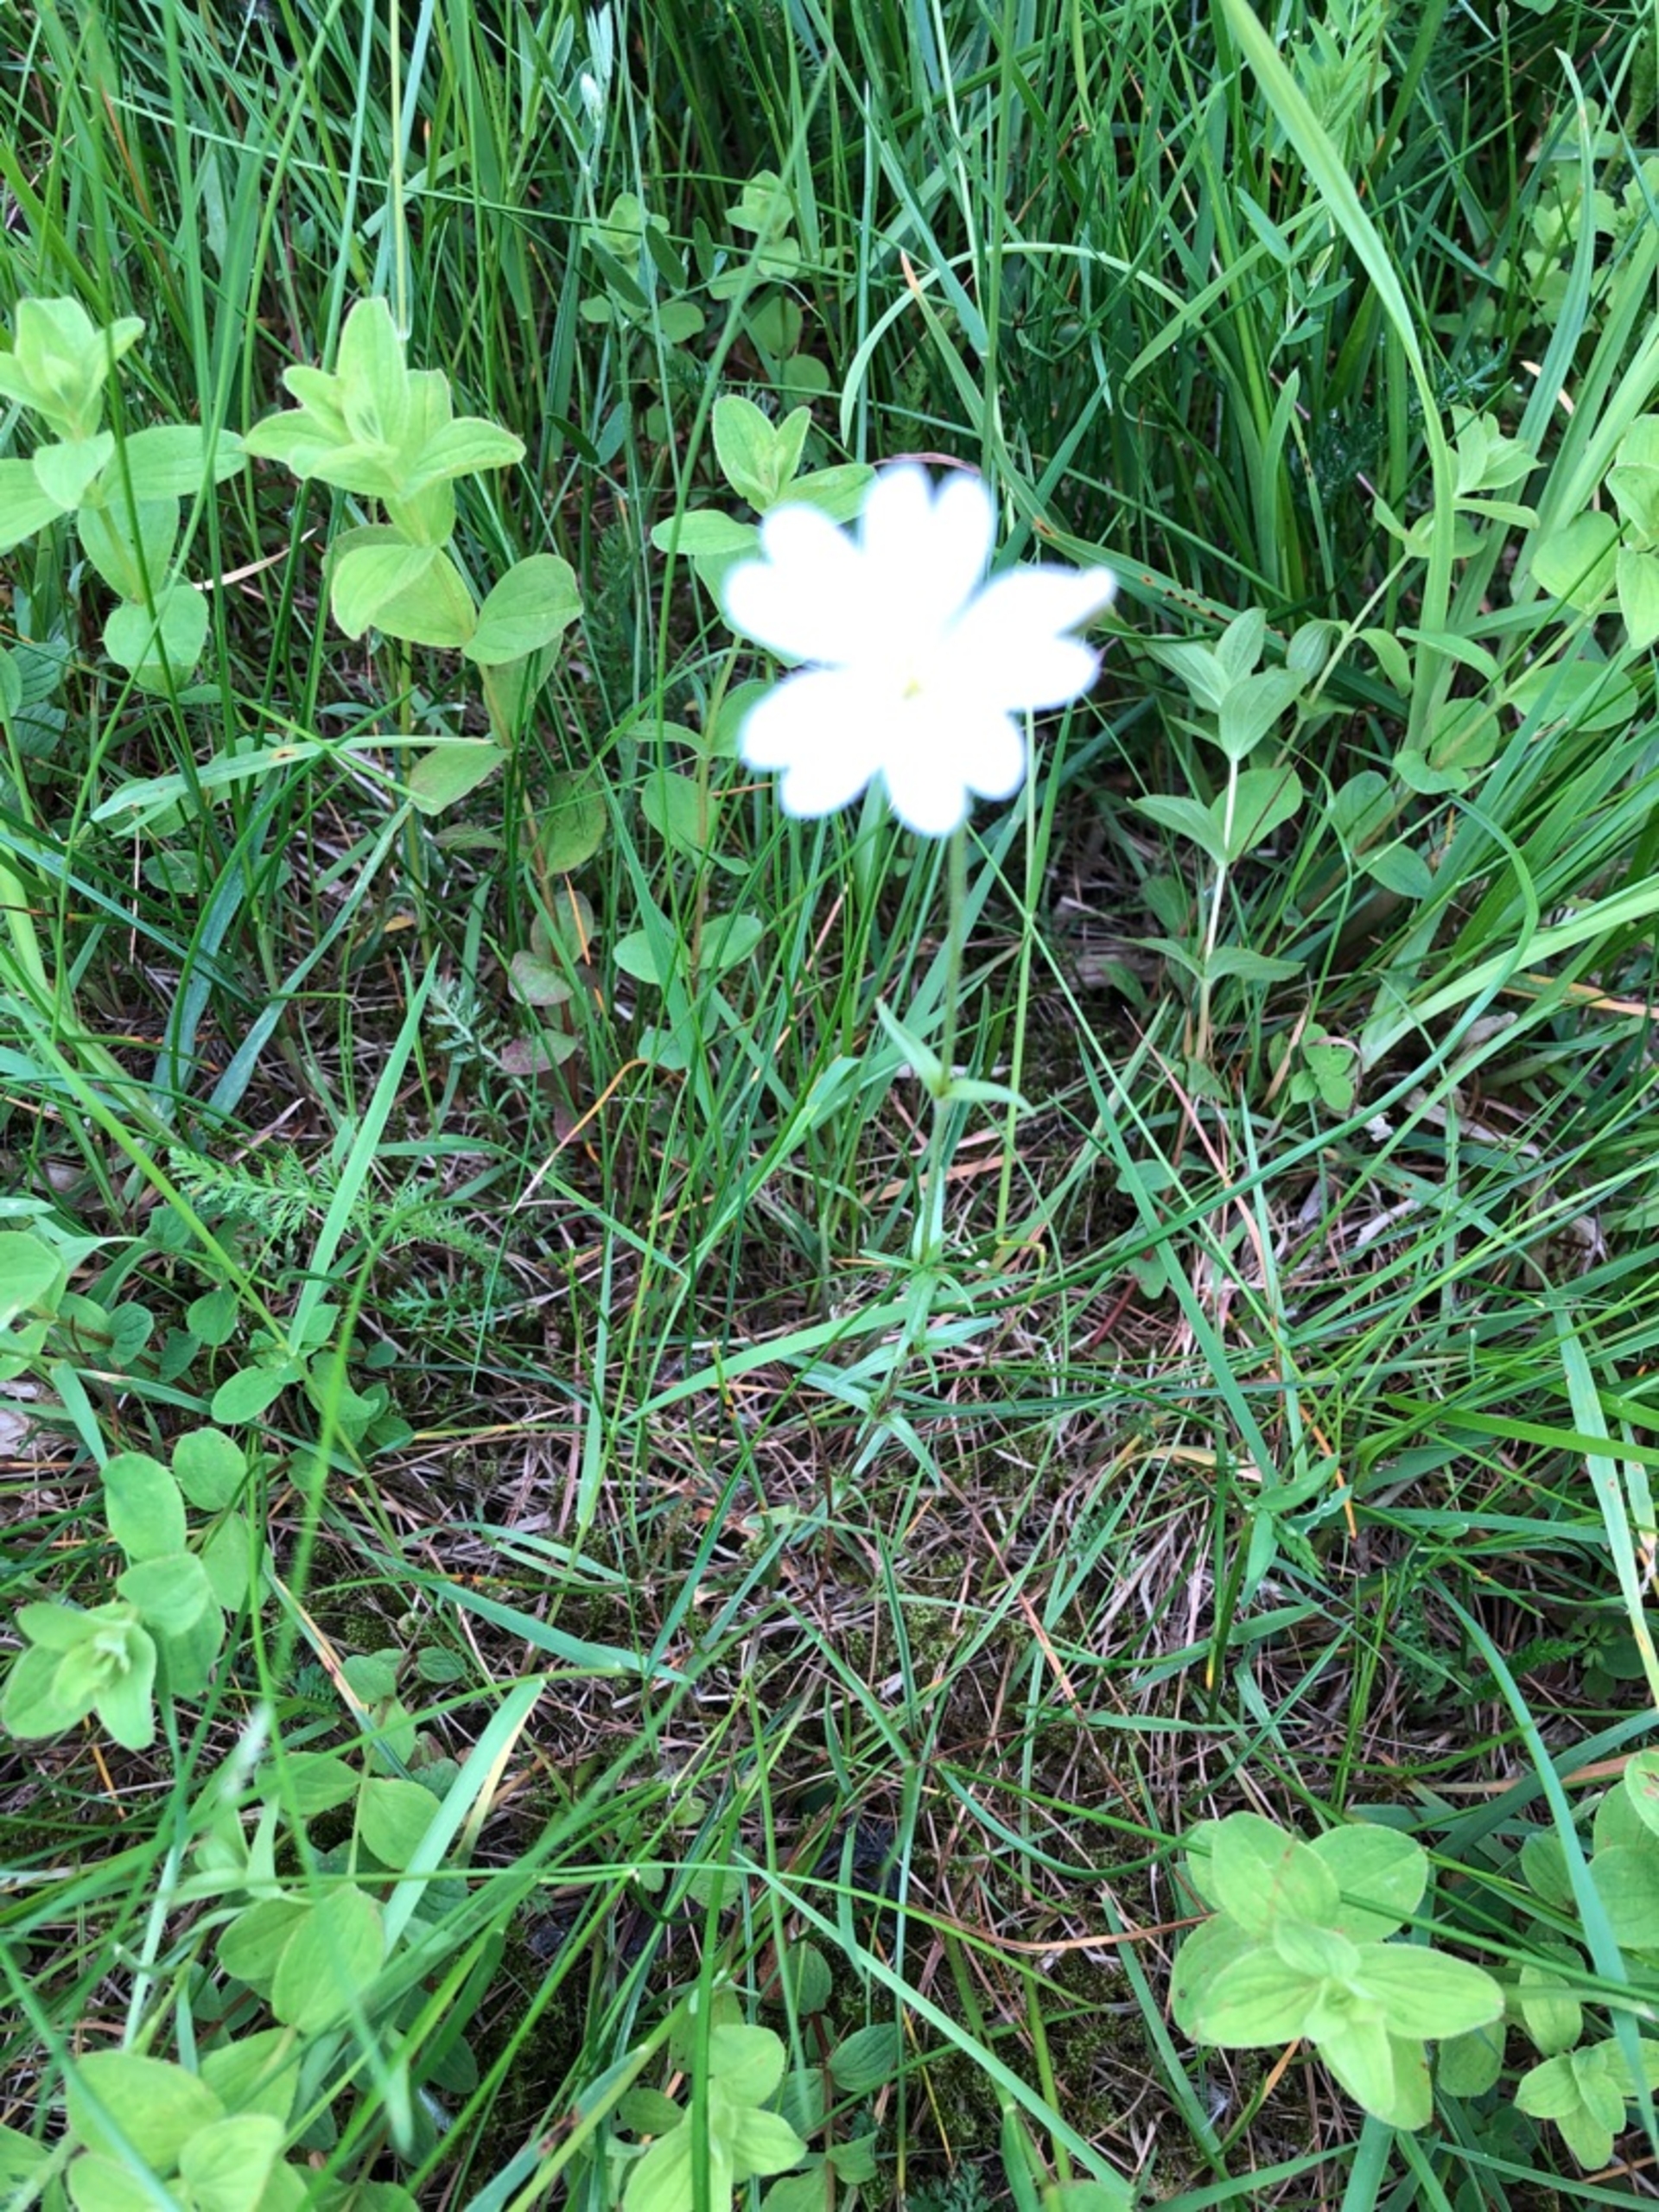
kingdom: Plantae
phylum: Tracheophyta
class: Magnoliopsida
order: Caryophyllales
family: Caryophyllaceae
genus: Cerastium
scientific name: Cerastium arvense
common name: Storblomstret hønsetarm
